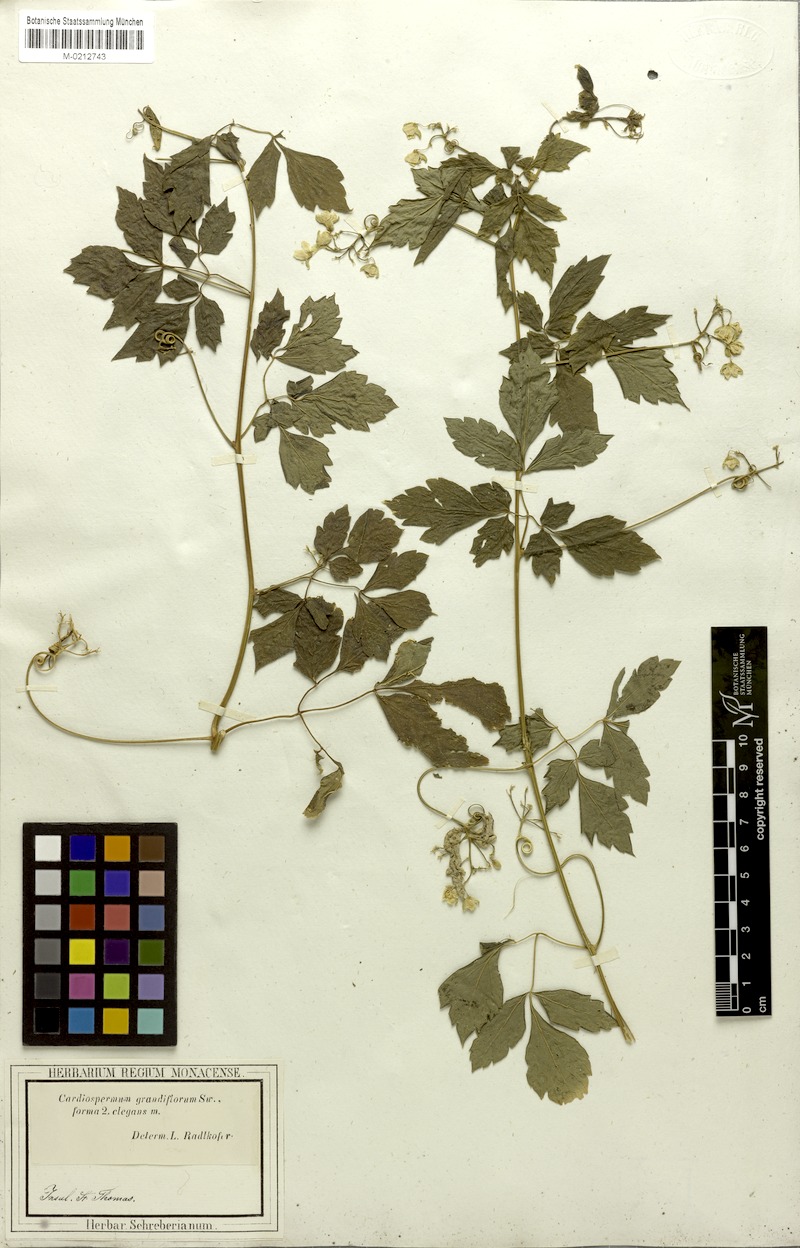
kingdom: Plantae
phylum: Tracheophyta
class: Magnoliopsida
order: Sapindales
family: Sapindaceae
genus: Cardiospermum
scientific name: Cardiospermum grandiflorum
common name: Balloon vine
